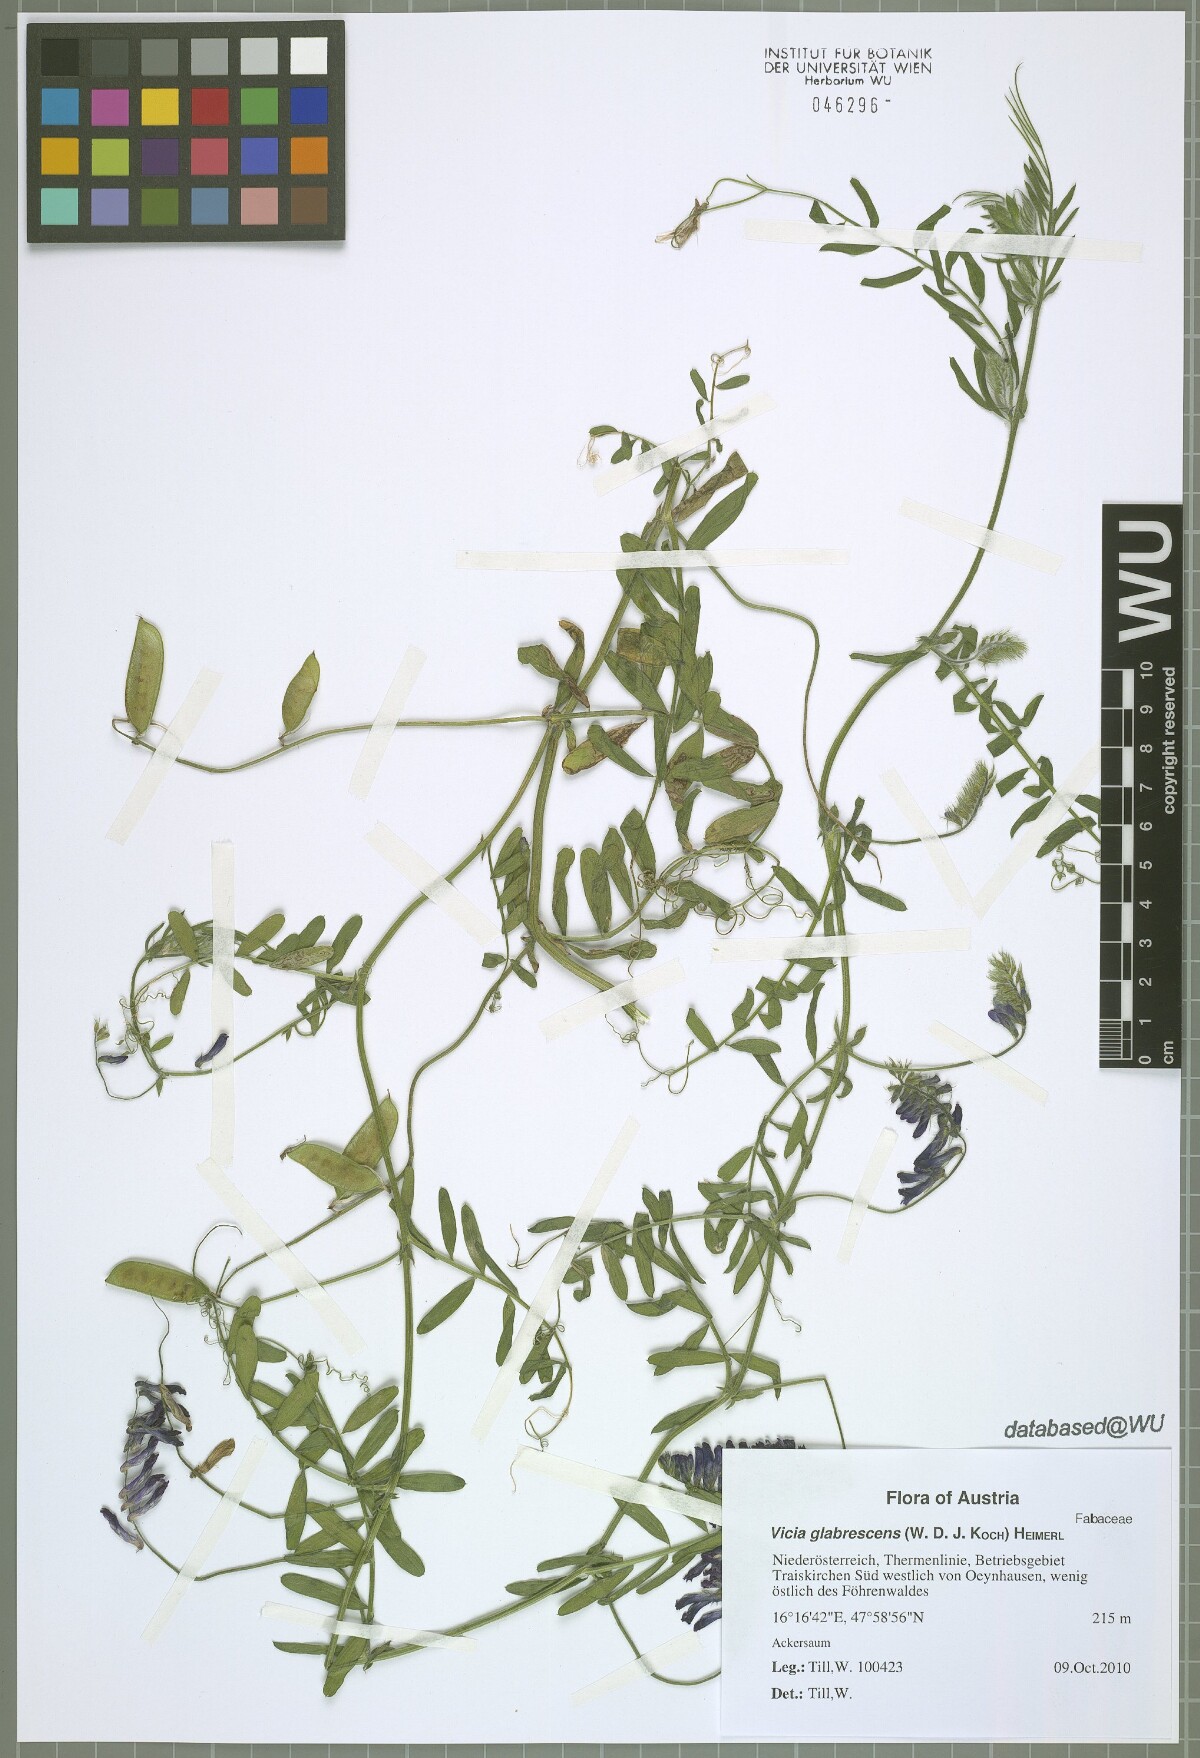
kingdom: Plantae
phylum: Tracheophyta
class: Magnoliopsida
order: Fabales
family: Fabaceae
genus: Vicia
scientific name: Vicia villosa
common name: Fodder vetch
